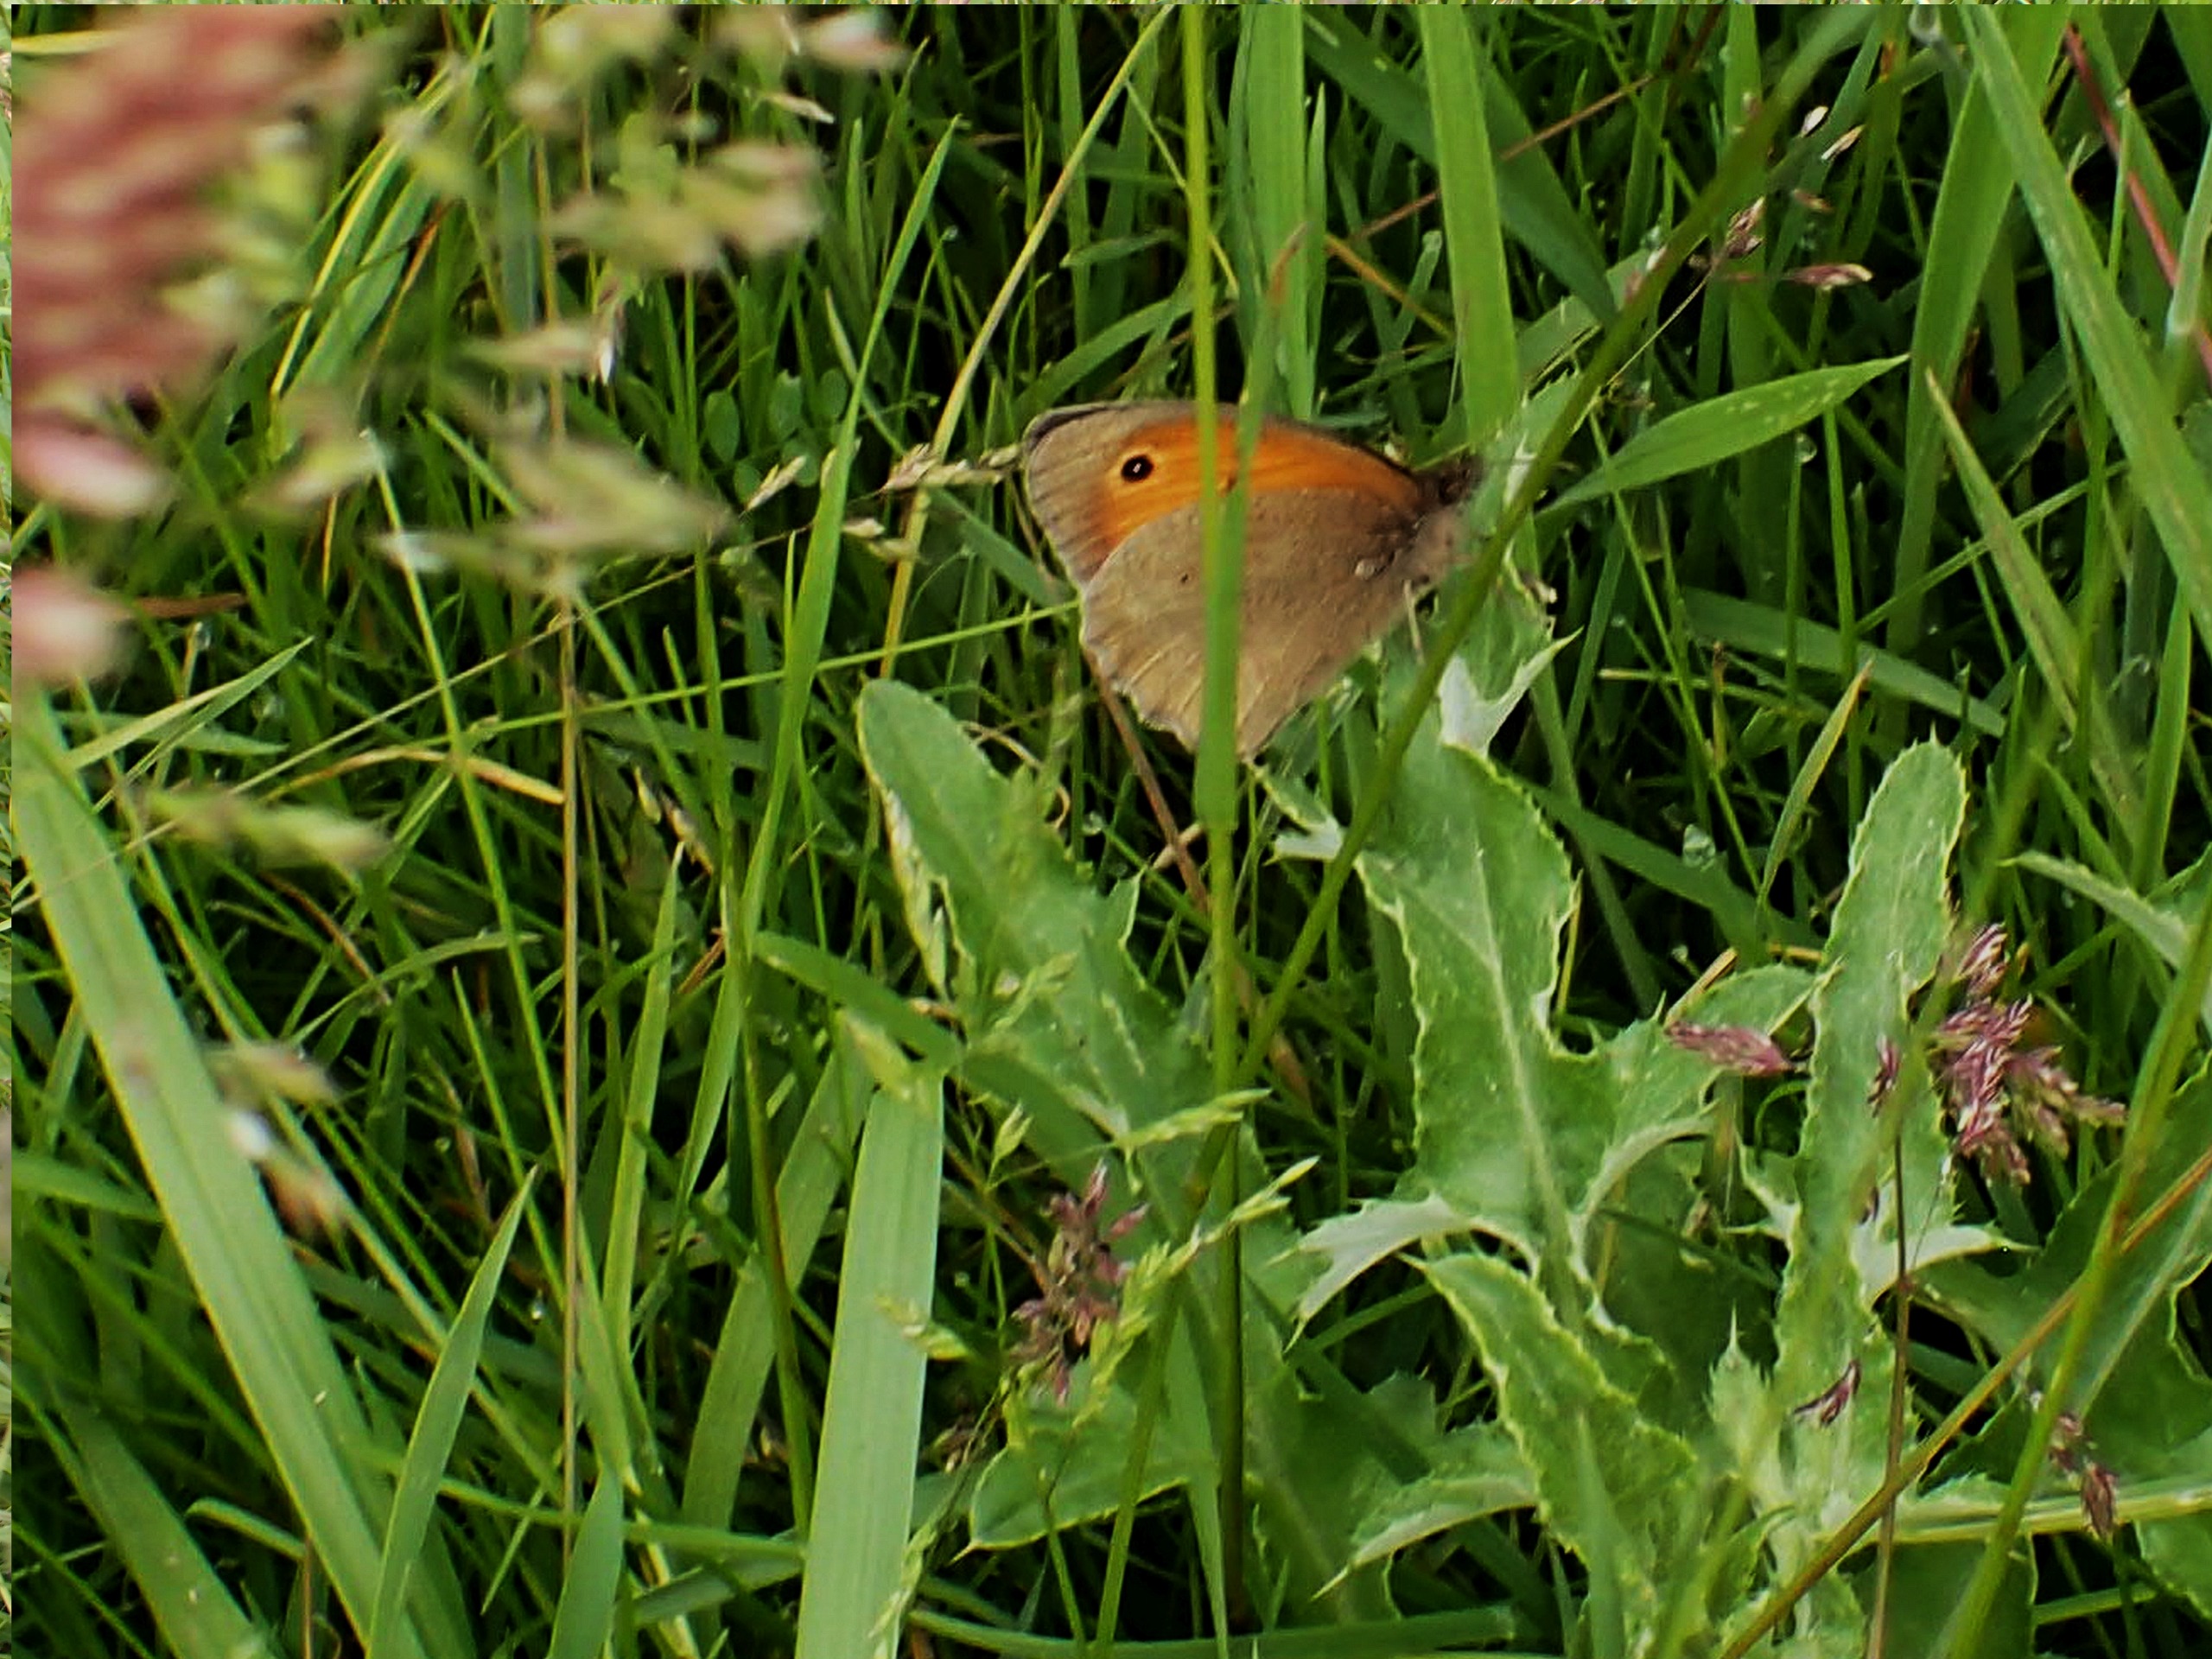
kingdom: Animalia
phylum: Arthropoda
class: Insecta
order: Lepidoptera
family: Nymphalidae
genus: Coenonympha
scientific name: Coenonympha pamphilus
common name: Okkergul randøje
